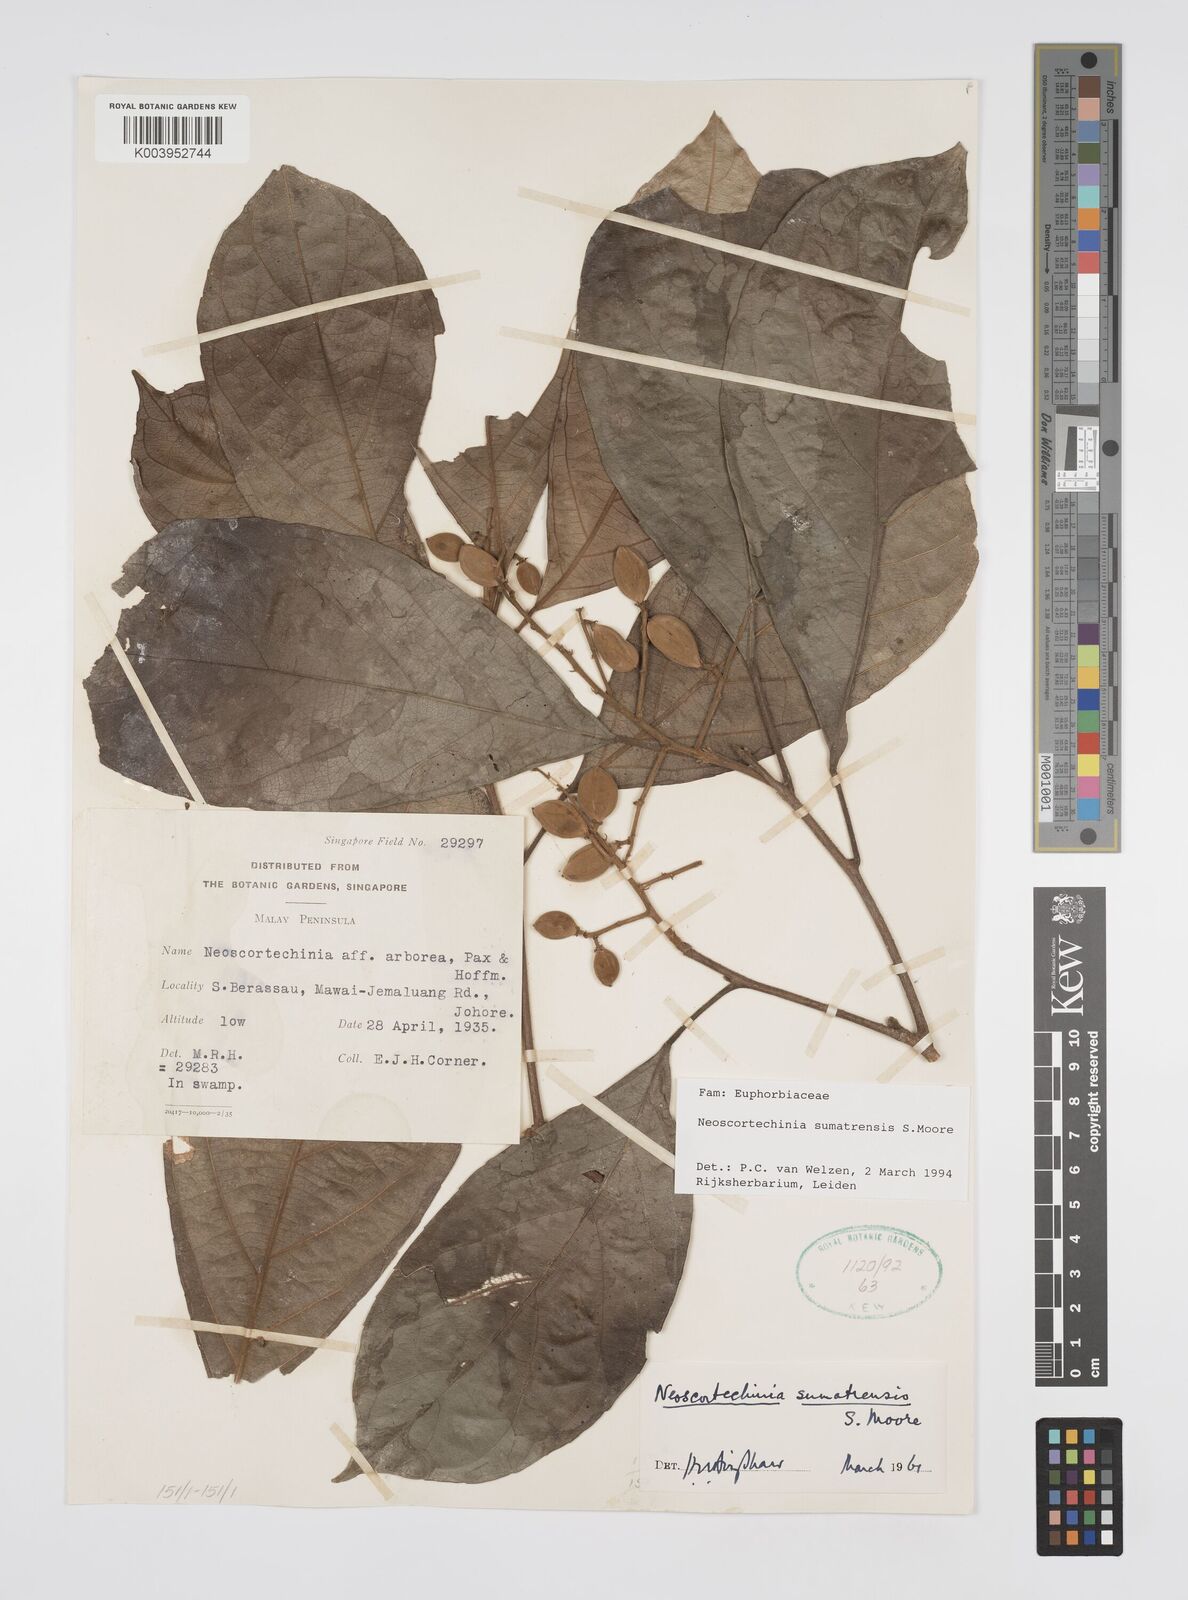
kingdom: Plantae
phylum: Tracheophyta
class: Magnoliopsida
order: Malpighiales
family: Euphorbiaceae
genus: Neoscortechinia
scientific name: Neoscortechinia sumatrensis
